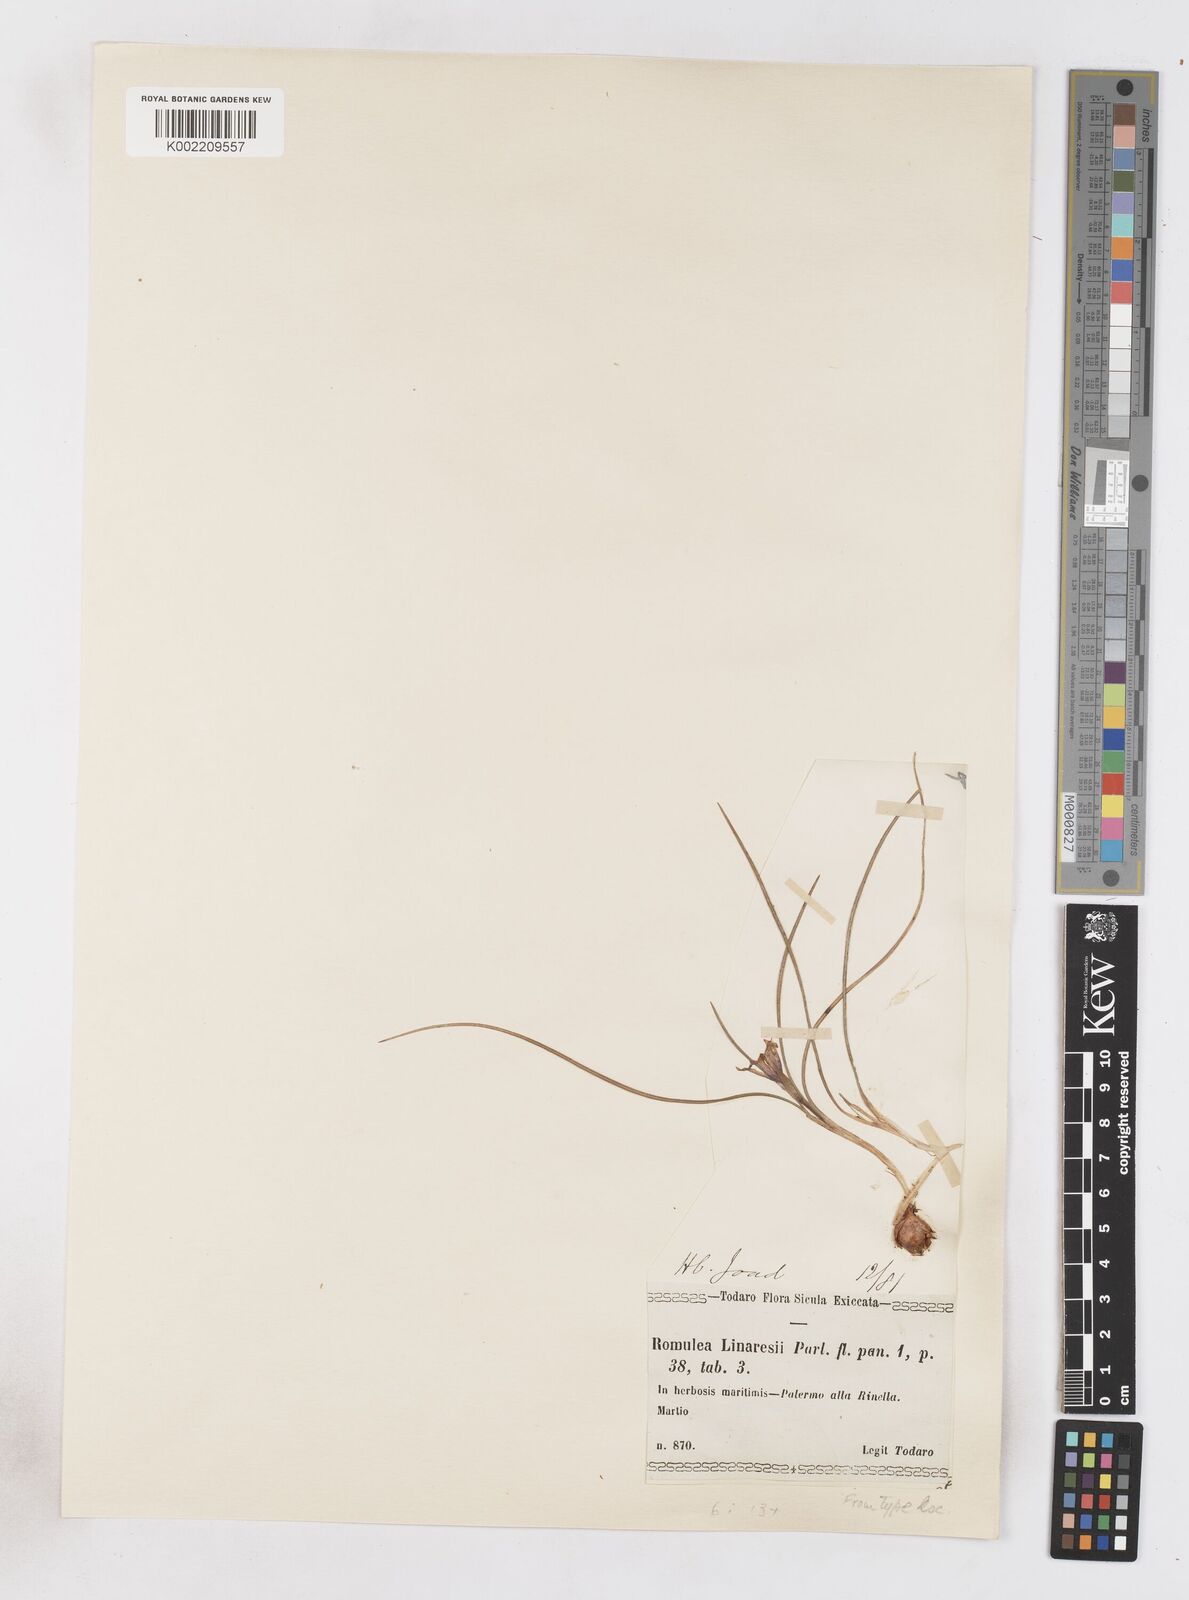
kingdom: Plantae
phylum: Tracheophyta
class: Liliopsida
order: Asparagales
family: Iridaceae
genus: Romulea
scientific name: Romulea linaresii
